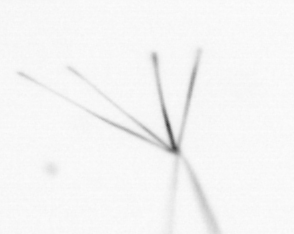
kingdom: Chromista
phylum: Ochrophyta
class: Bacillariophyceae
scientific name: Bacillariophyceae
